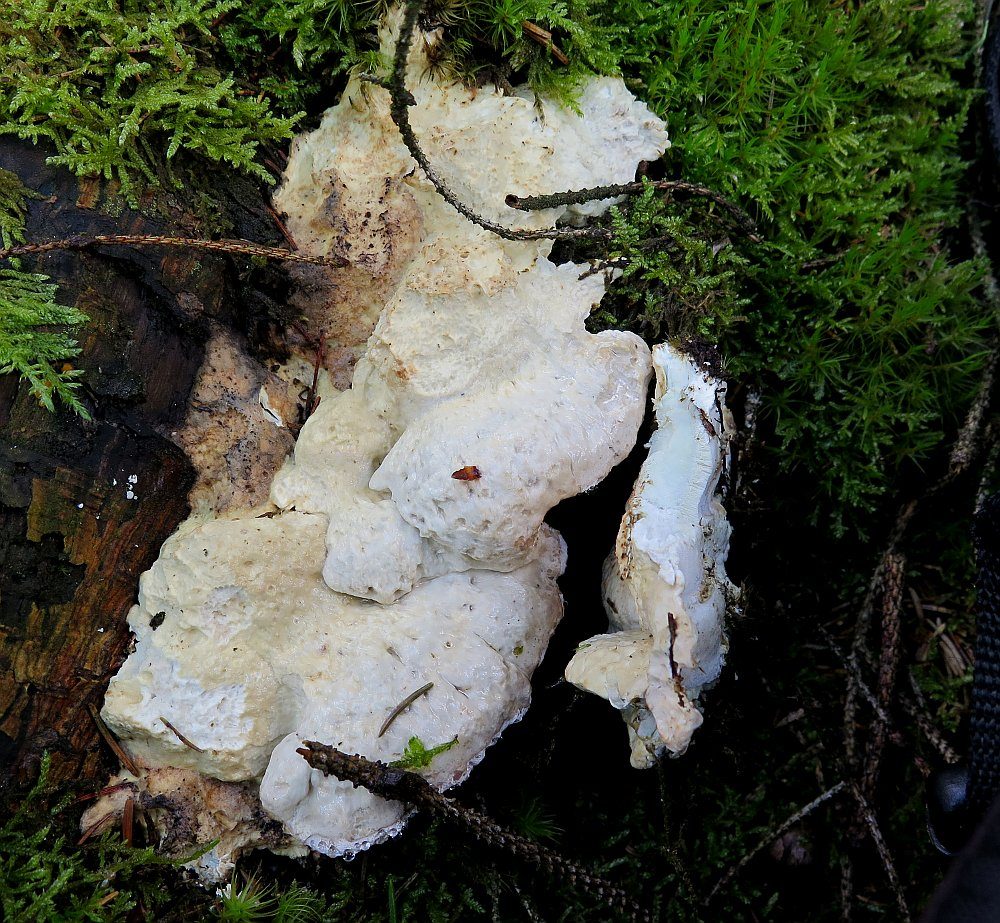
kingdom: Fungi
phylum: Basidiomycota
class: Agaricomycetes
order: Polyporales
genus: Calcipostia
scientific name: Calcipostia guttulata
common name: dråbe-kødporesvamp
